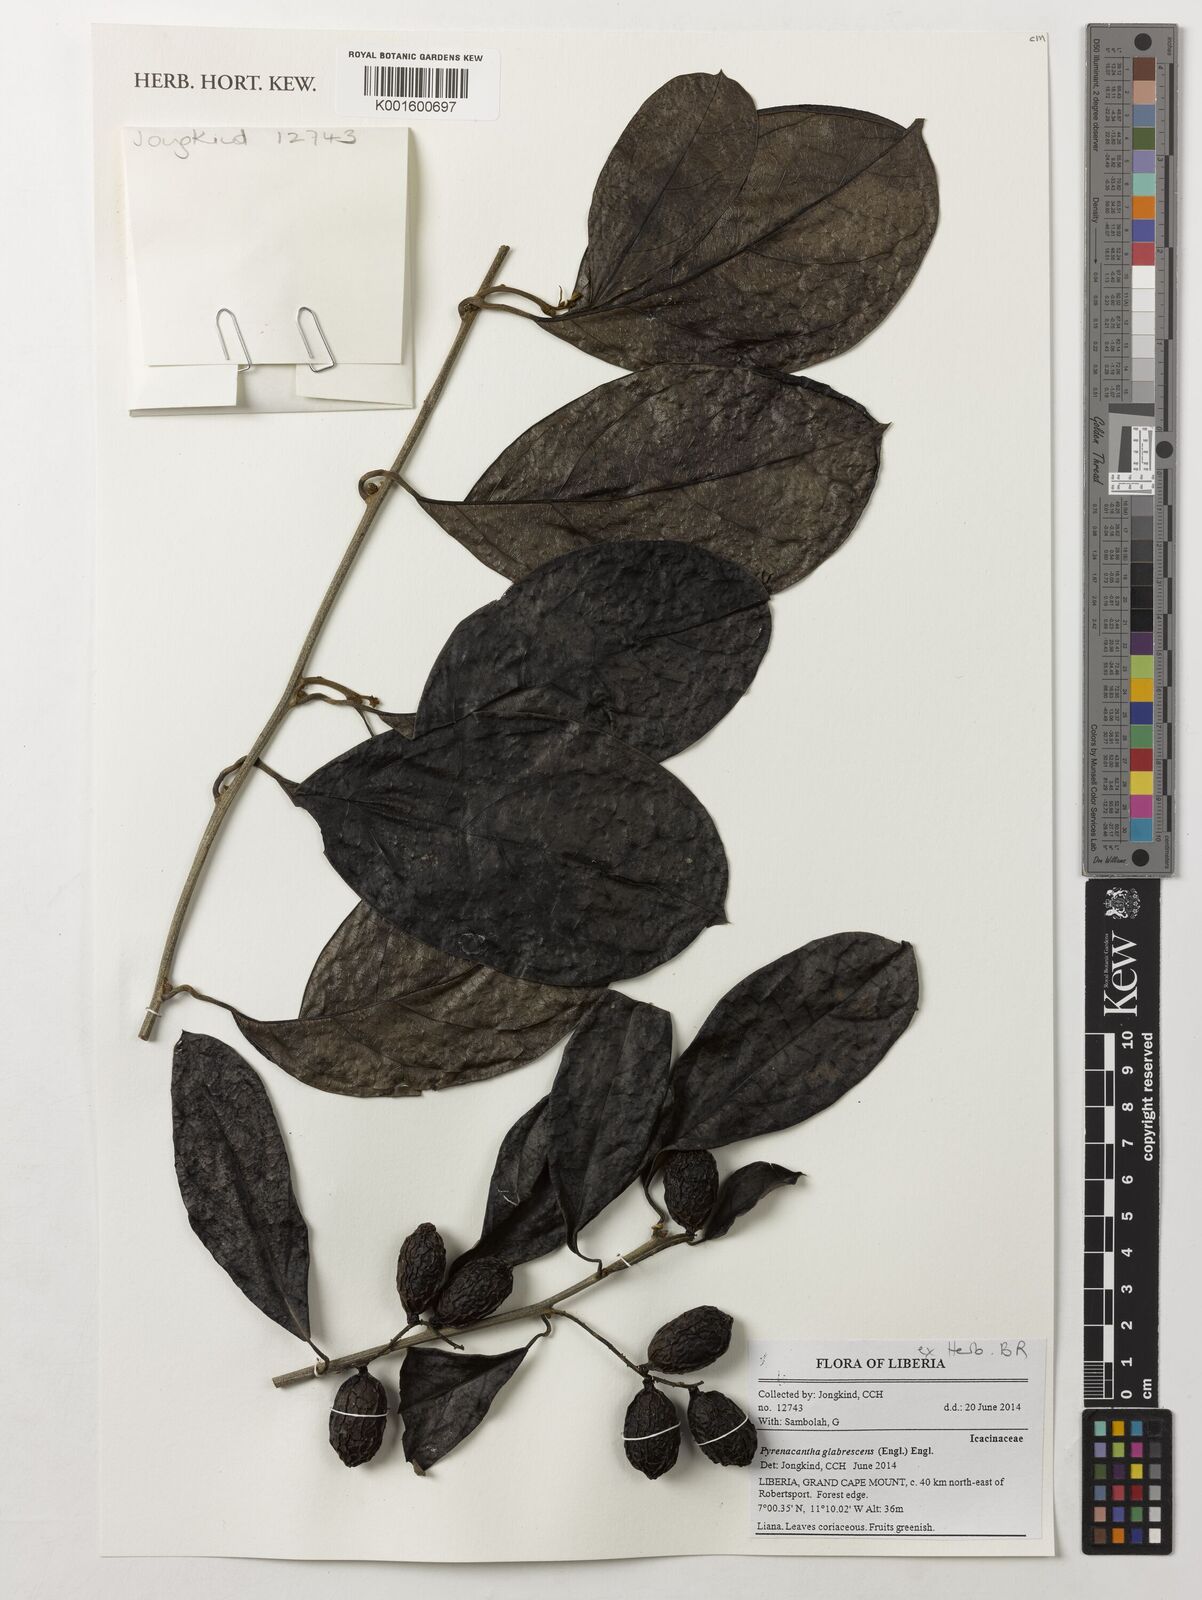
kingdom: Plantae
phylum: Tracheophyta
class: Magnoliopsida
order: Icacinales
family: Icacinaceae
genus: Pyrenacantha
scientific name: Pyrenacantha glabrescens
